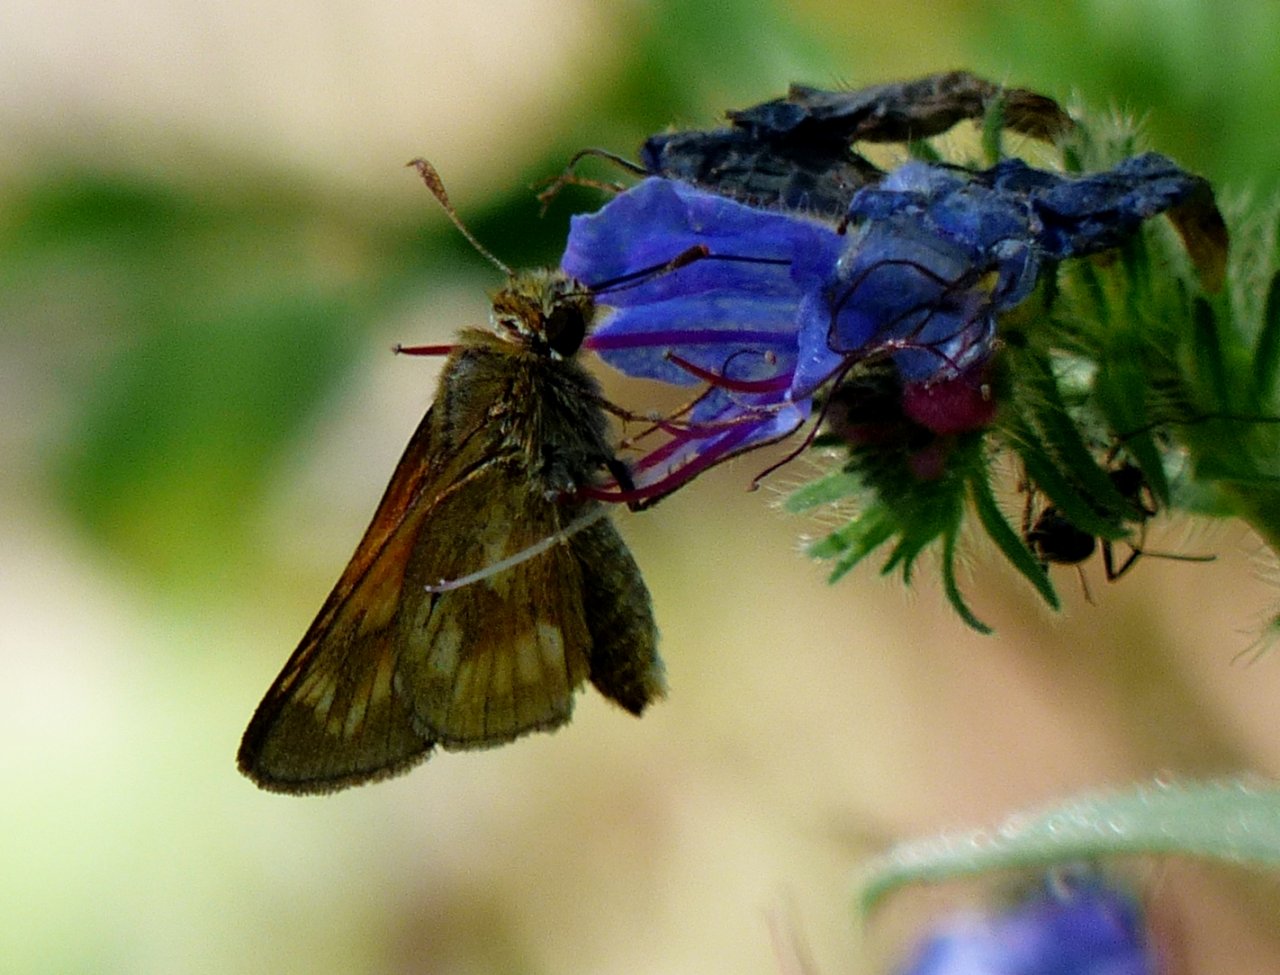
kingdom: Animalia
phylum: Arthropoda
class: Insecta
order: Lepidoptera
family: Hesperiidae
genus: Polites
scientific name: Polites
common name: Long Dash Skipper
